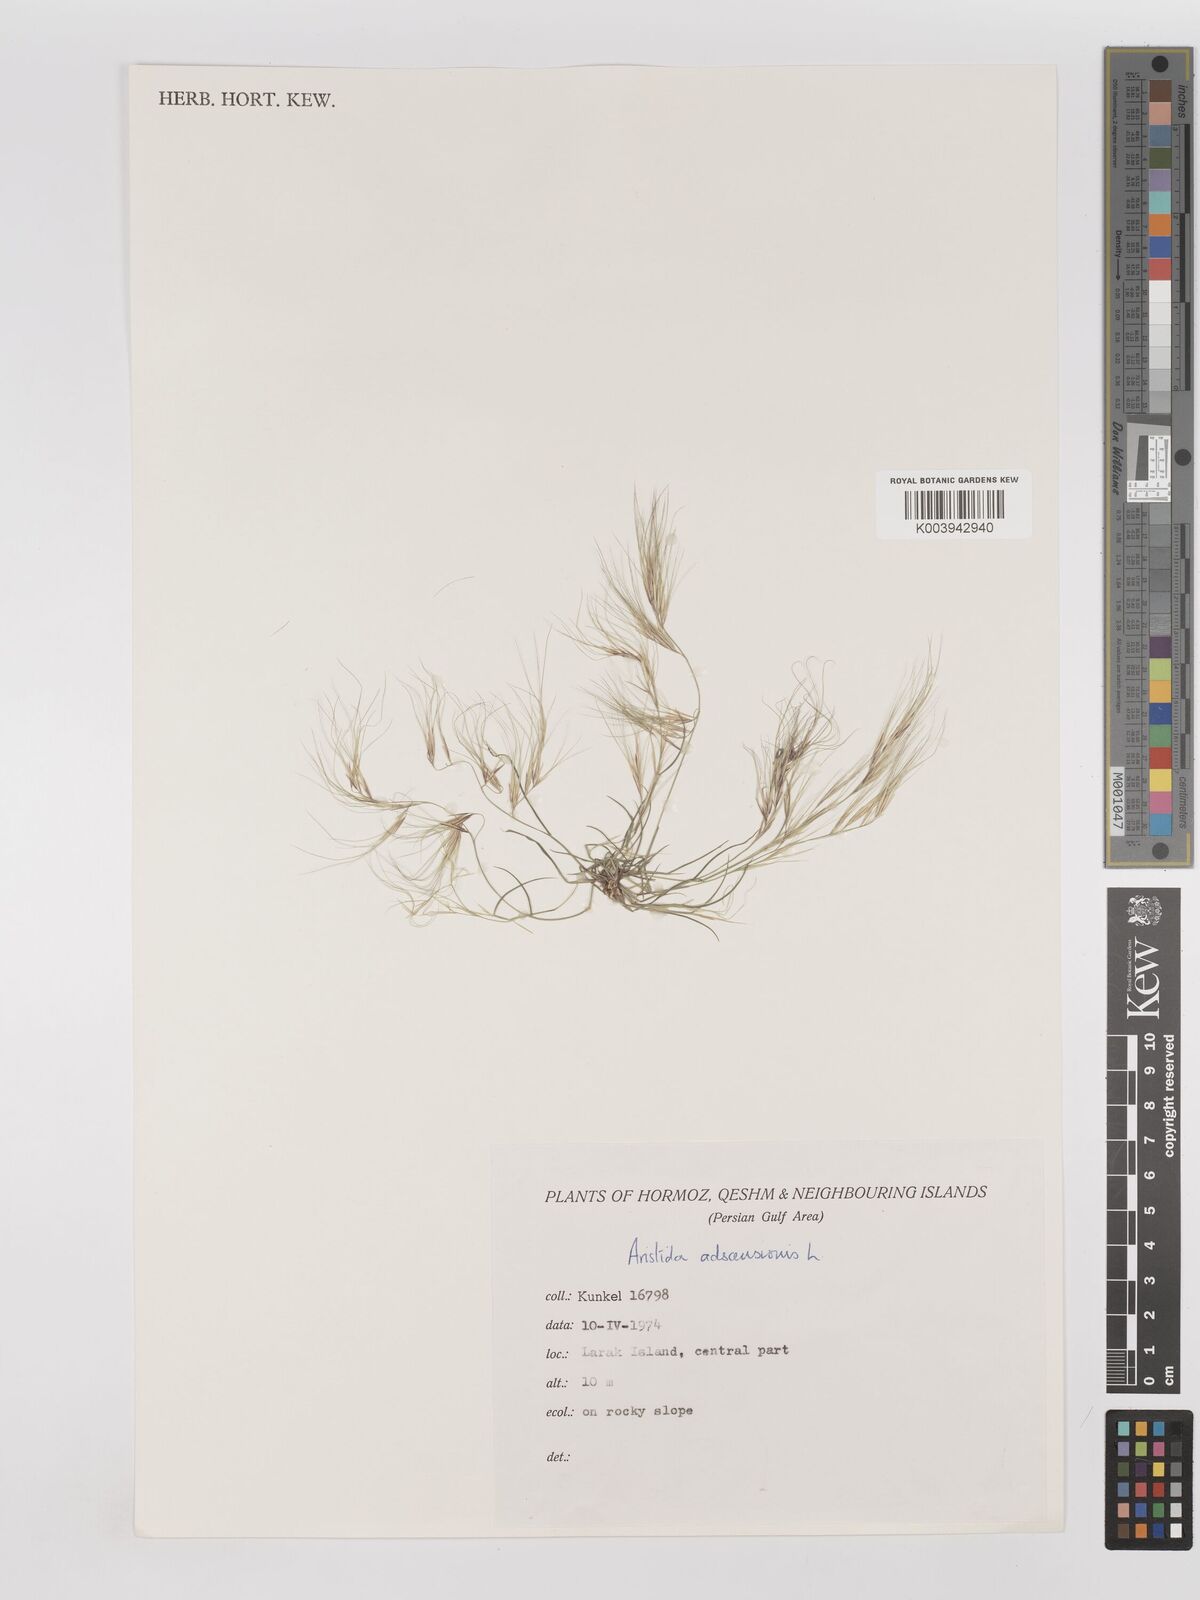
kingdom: Plantae
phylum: Tracheophyta
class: Liliopsida
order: Poales
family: Poaceae
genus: Aristida
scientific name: Aristida adscensionis
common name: Sixweeks threeawn
